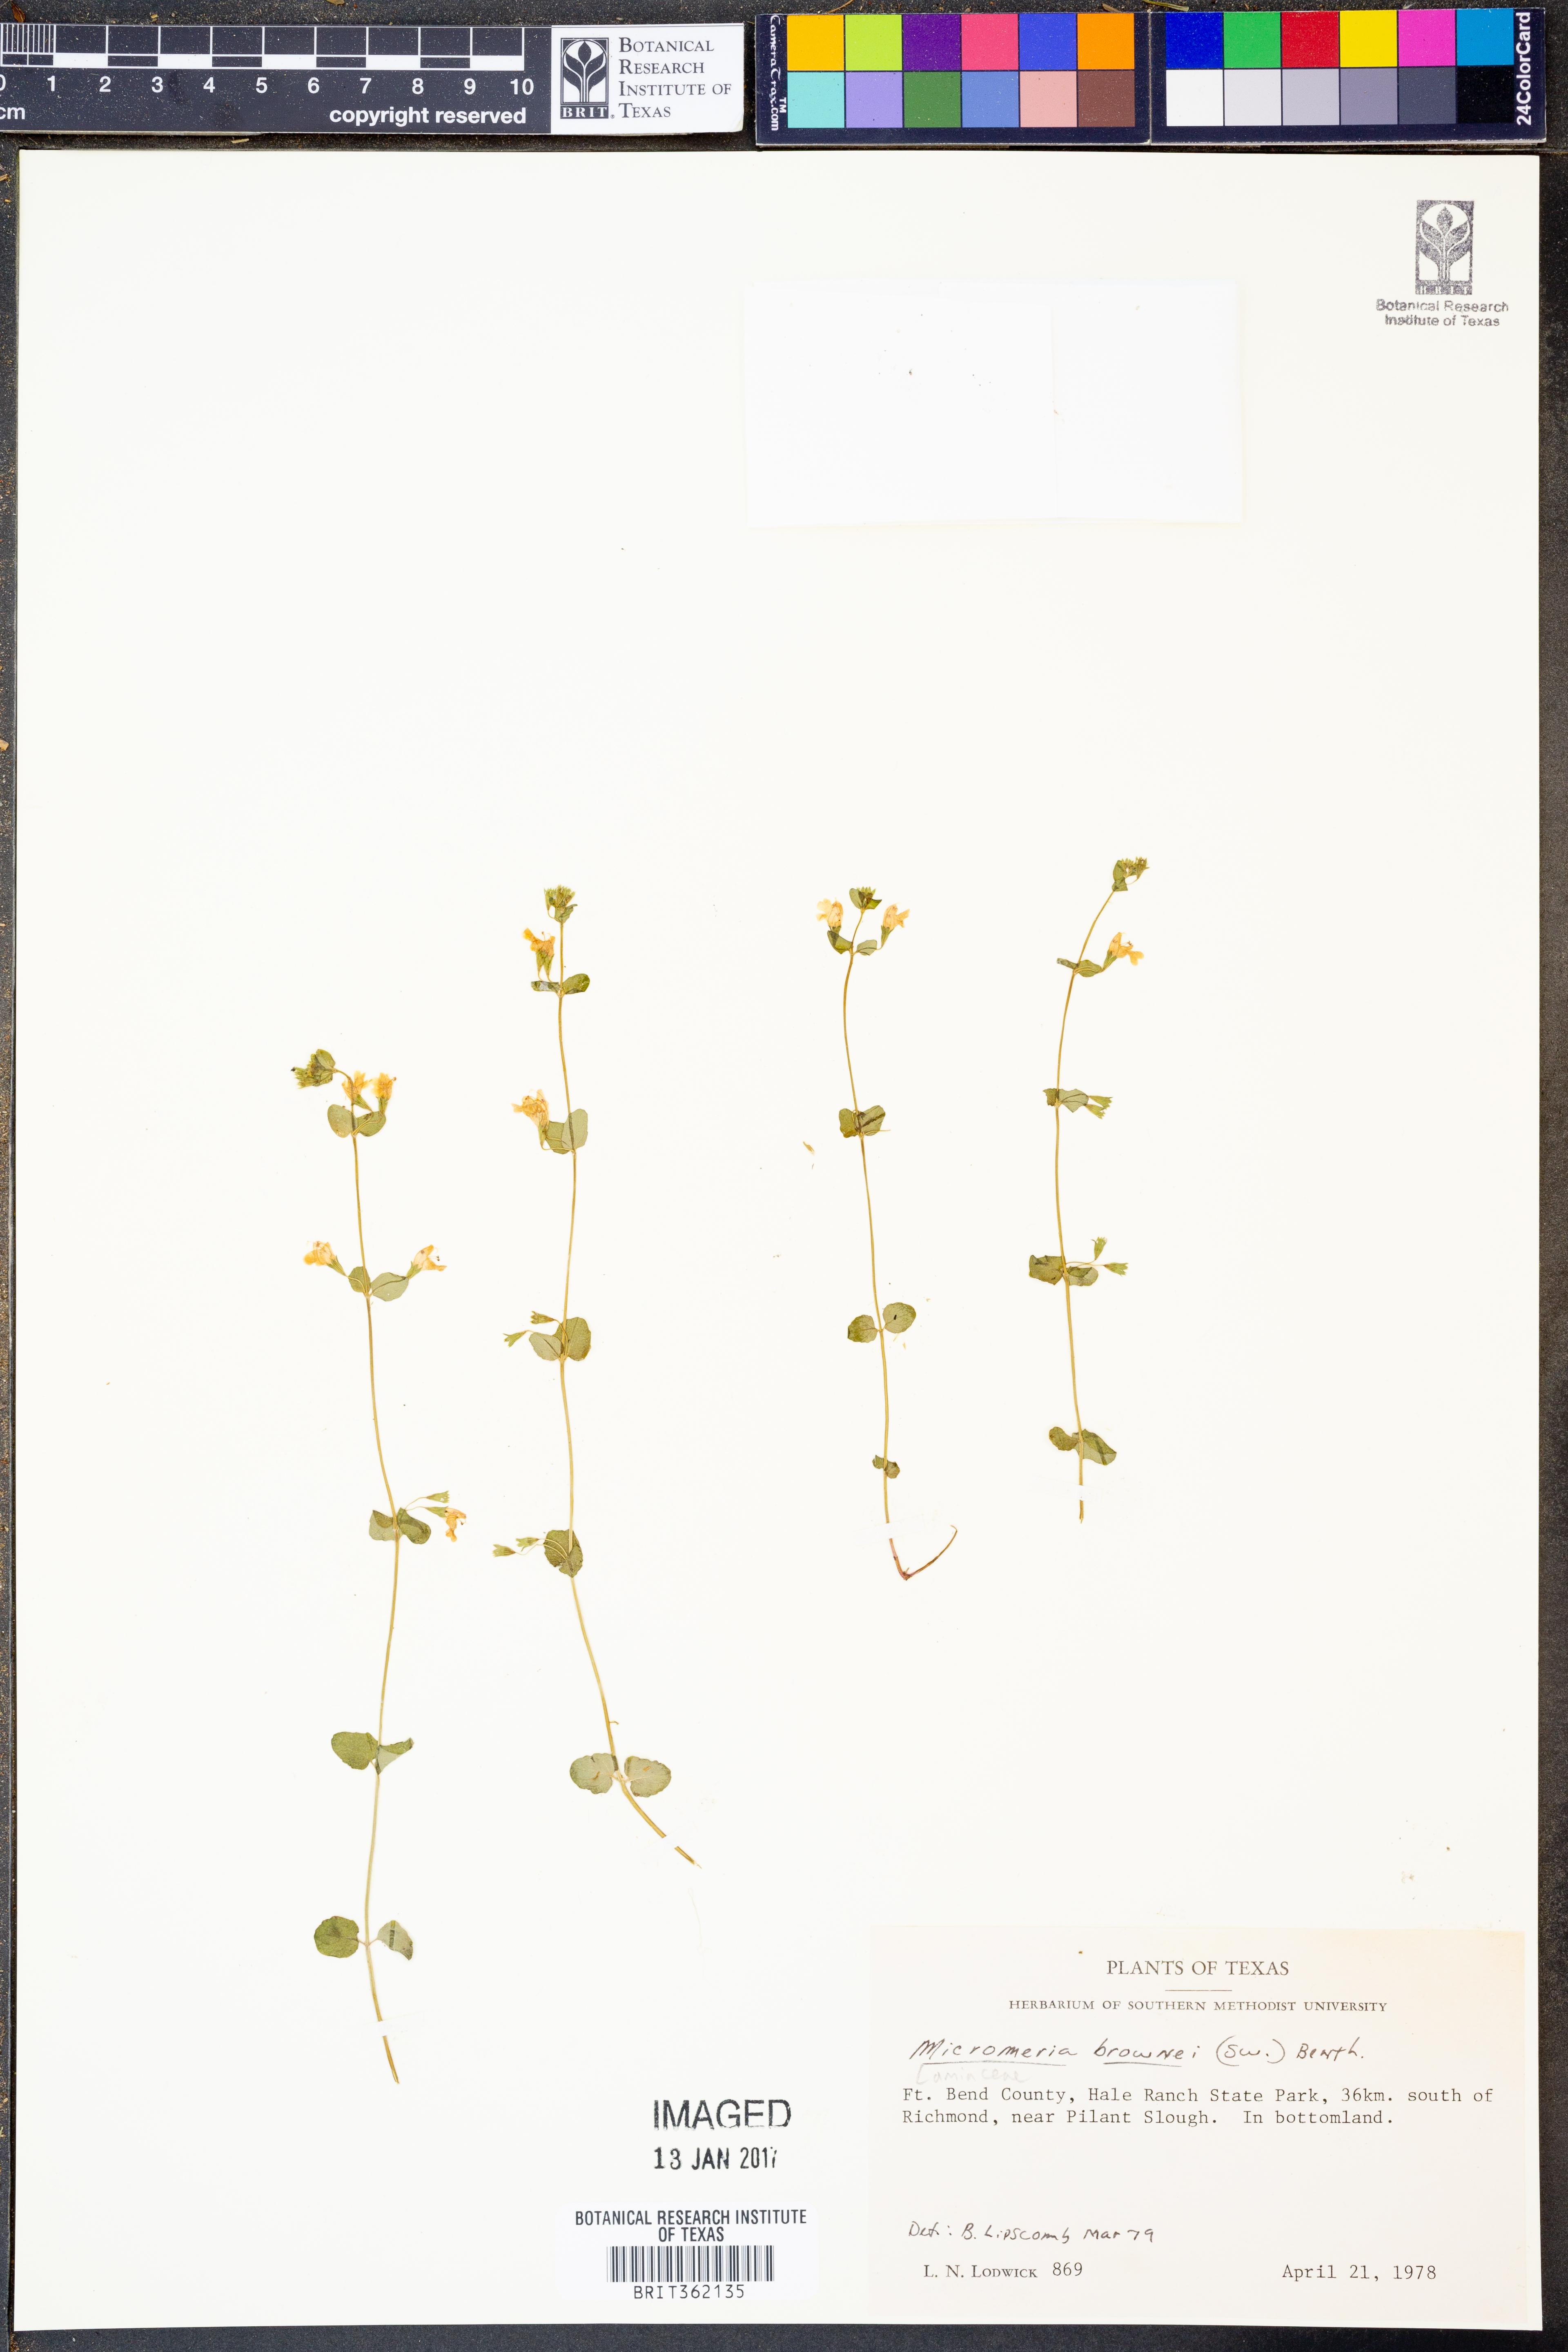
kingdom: Plantae
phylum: Tracheophyta
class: Magnoliopsida
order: Lamiales
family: Lamiaceae
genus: Clinopodium
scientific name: Clinopodium brownei
